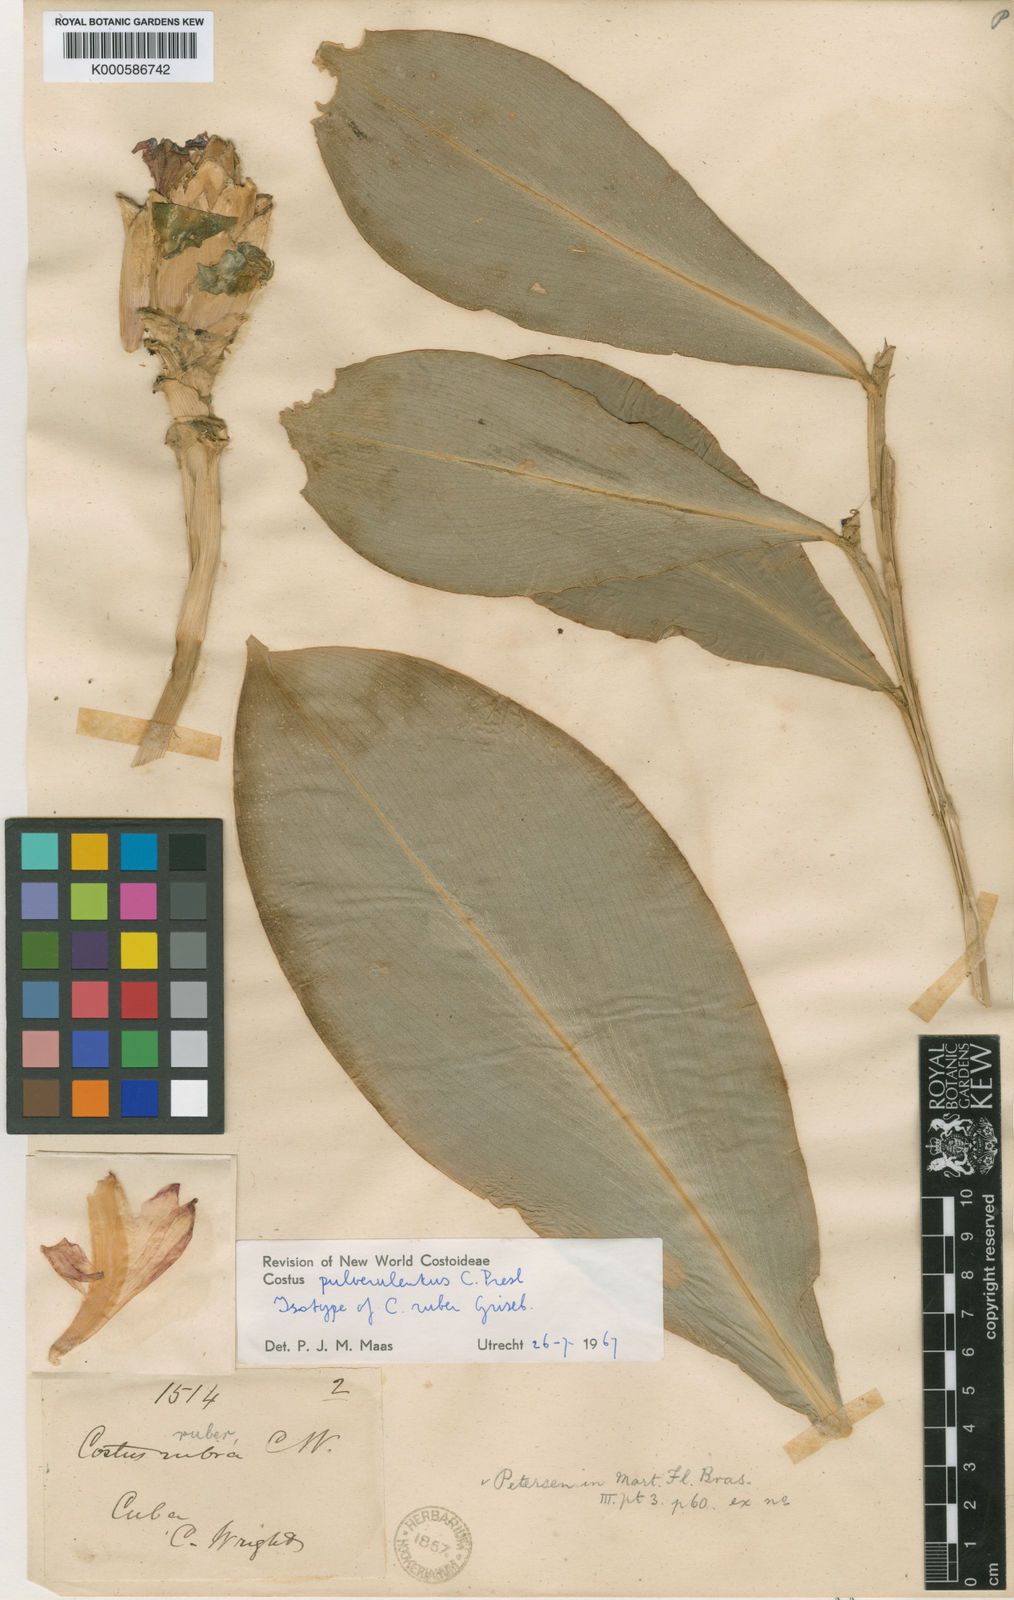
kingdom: Plantae
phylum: Tracheophyta
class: Liliopsida
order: Zingiberales
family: Costaceae
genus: Costus
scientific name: Costus pulverulentus
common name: Spiral ginger
